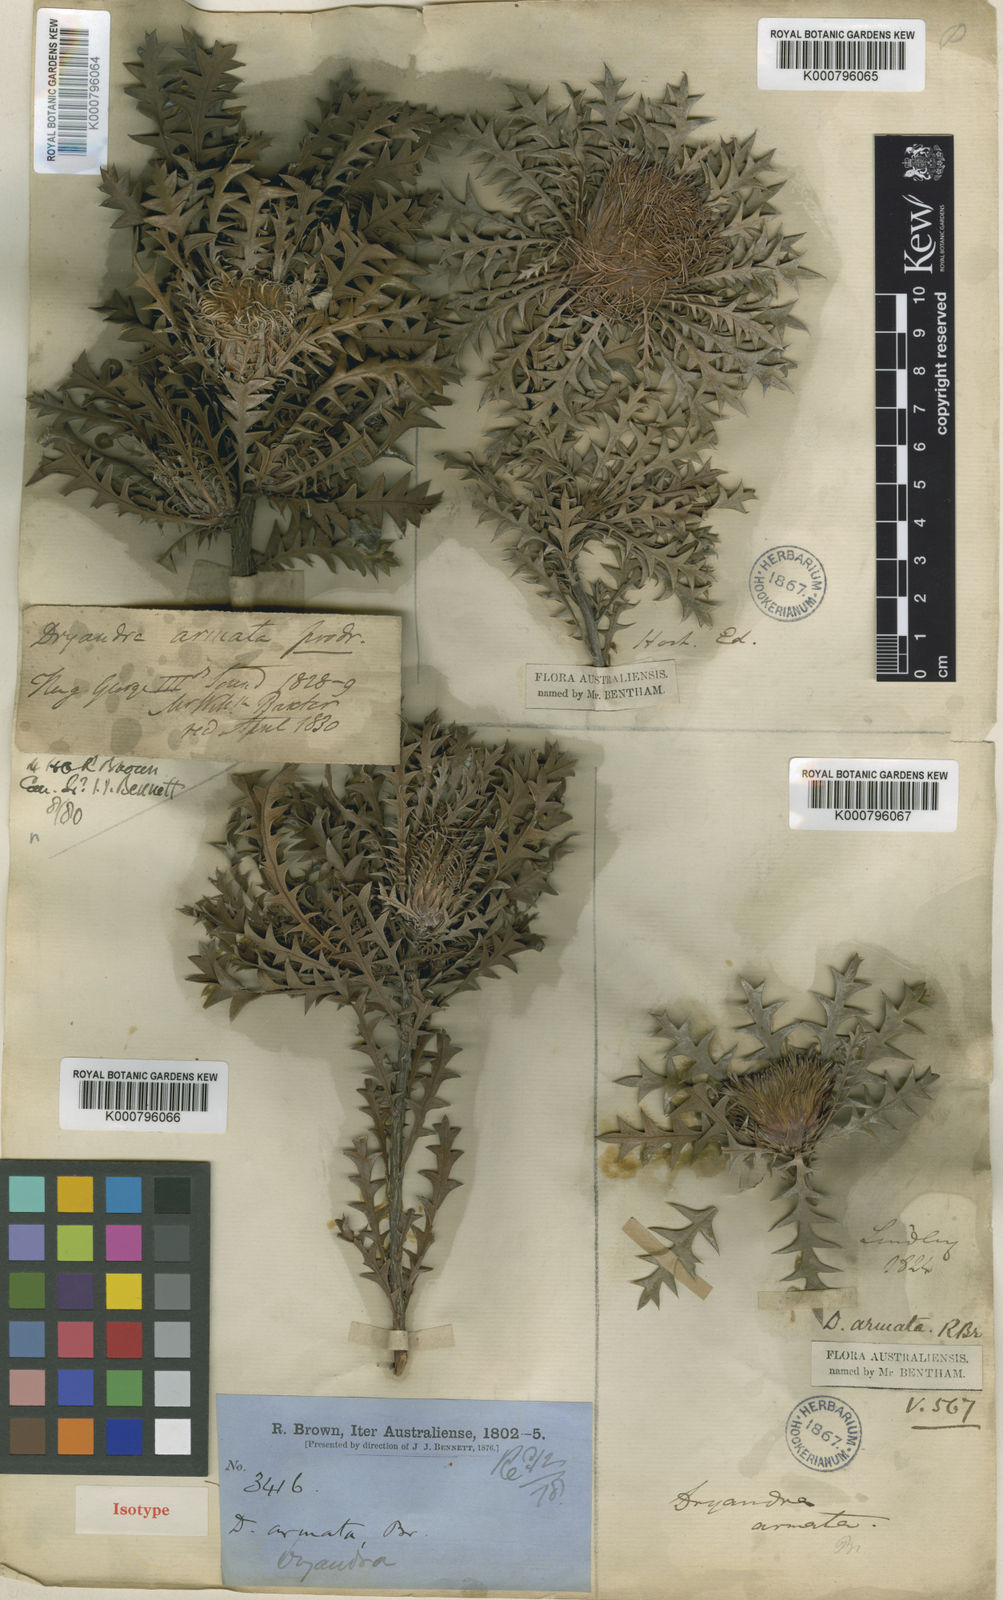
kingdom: Plantae
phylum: Tracheophyta
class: Magnoliopsida
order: Proteales
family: Proteaceae
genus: Banksia
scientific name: Banksia armata
